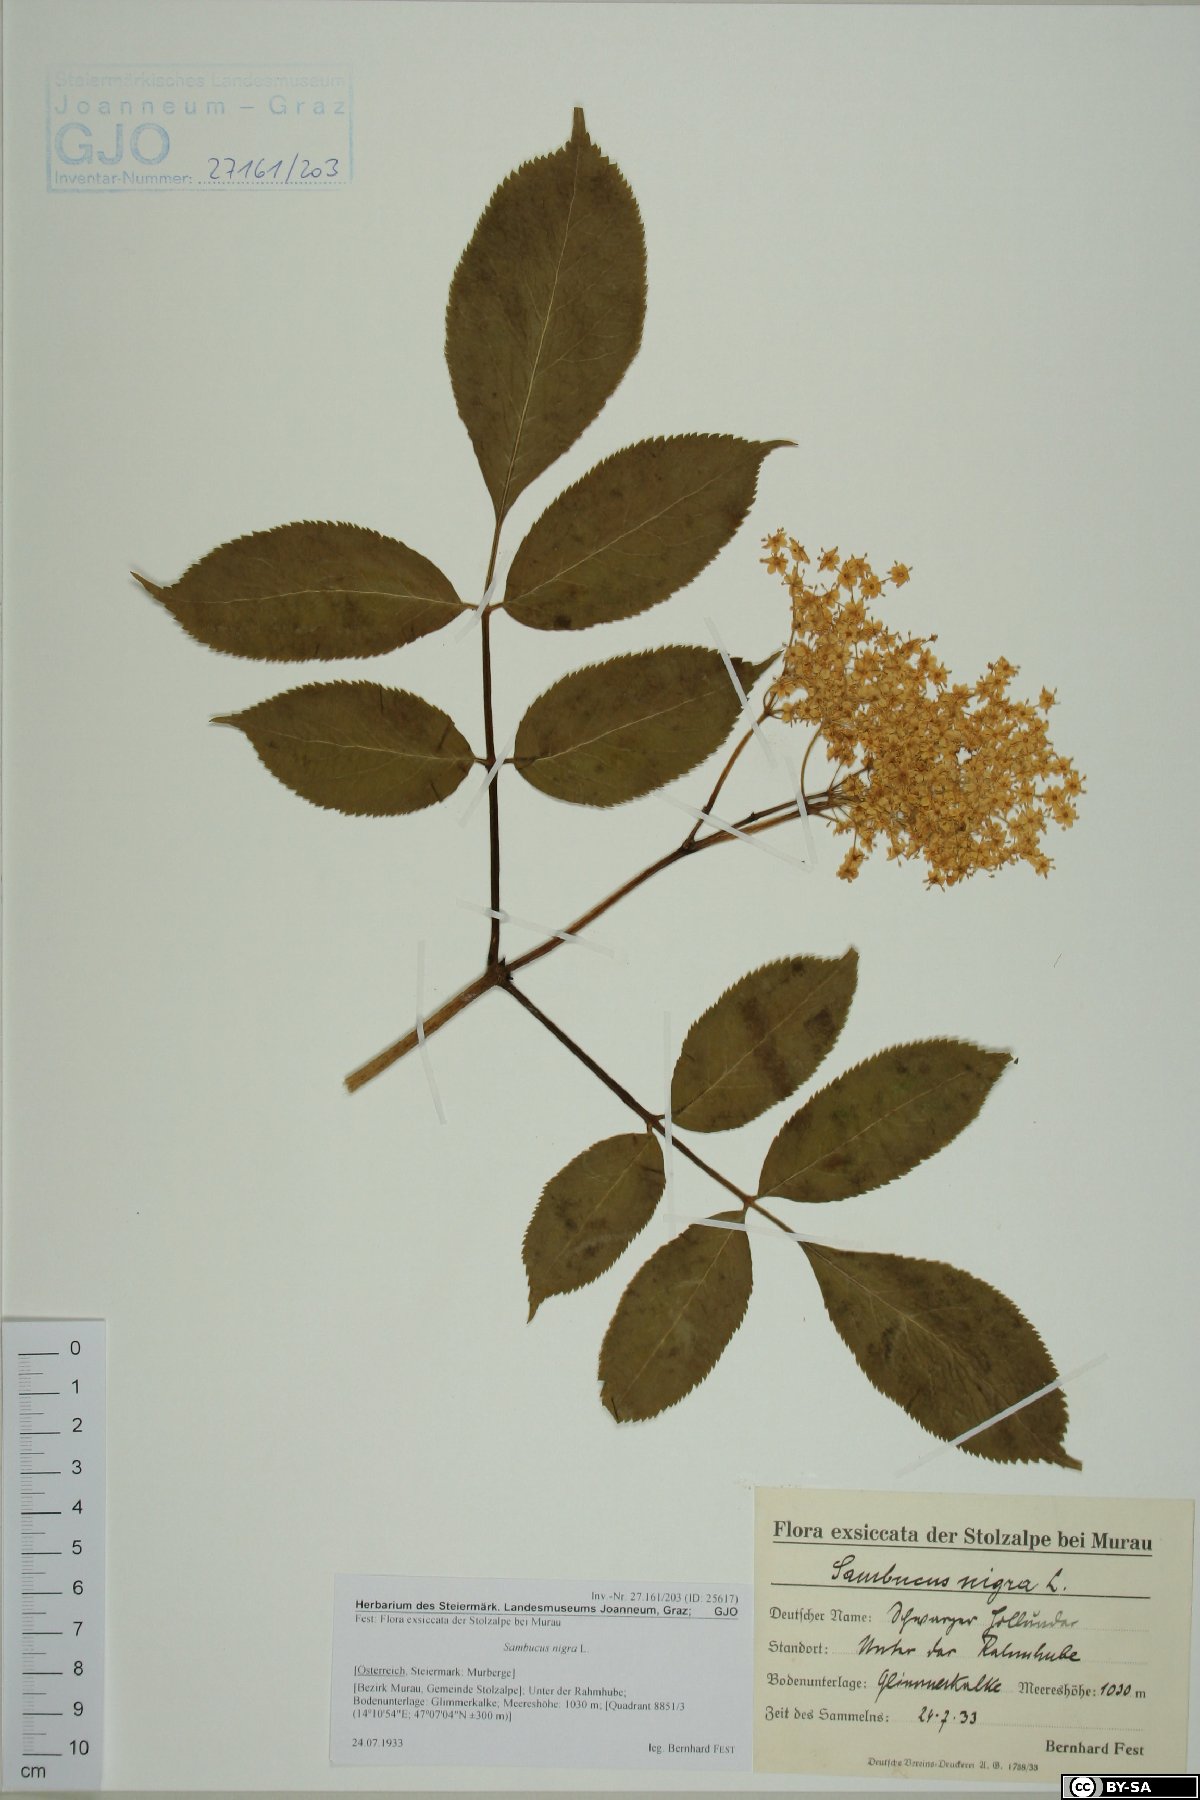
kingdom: Plantae
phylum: Tracheophyta
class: Magnoliopsida
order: Dipsacales
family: Viburnaceae
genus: Sambucus
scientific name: Sambucus nigra
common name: Elder
